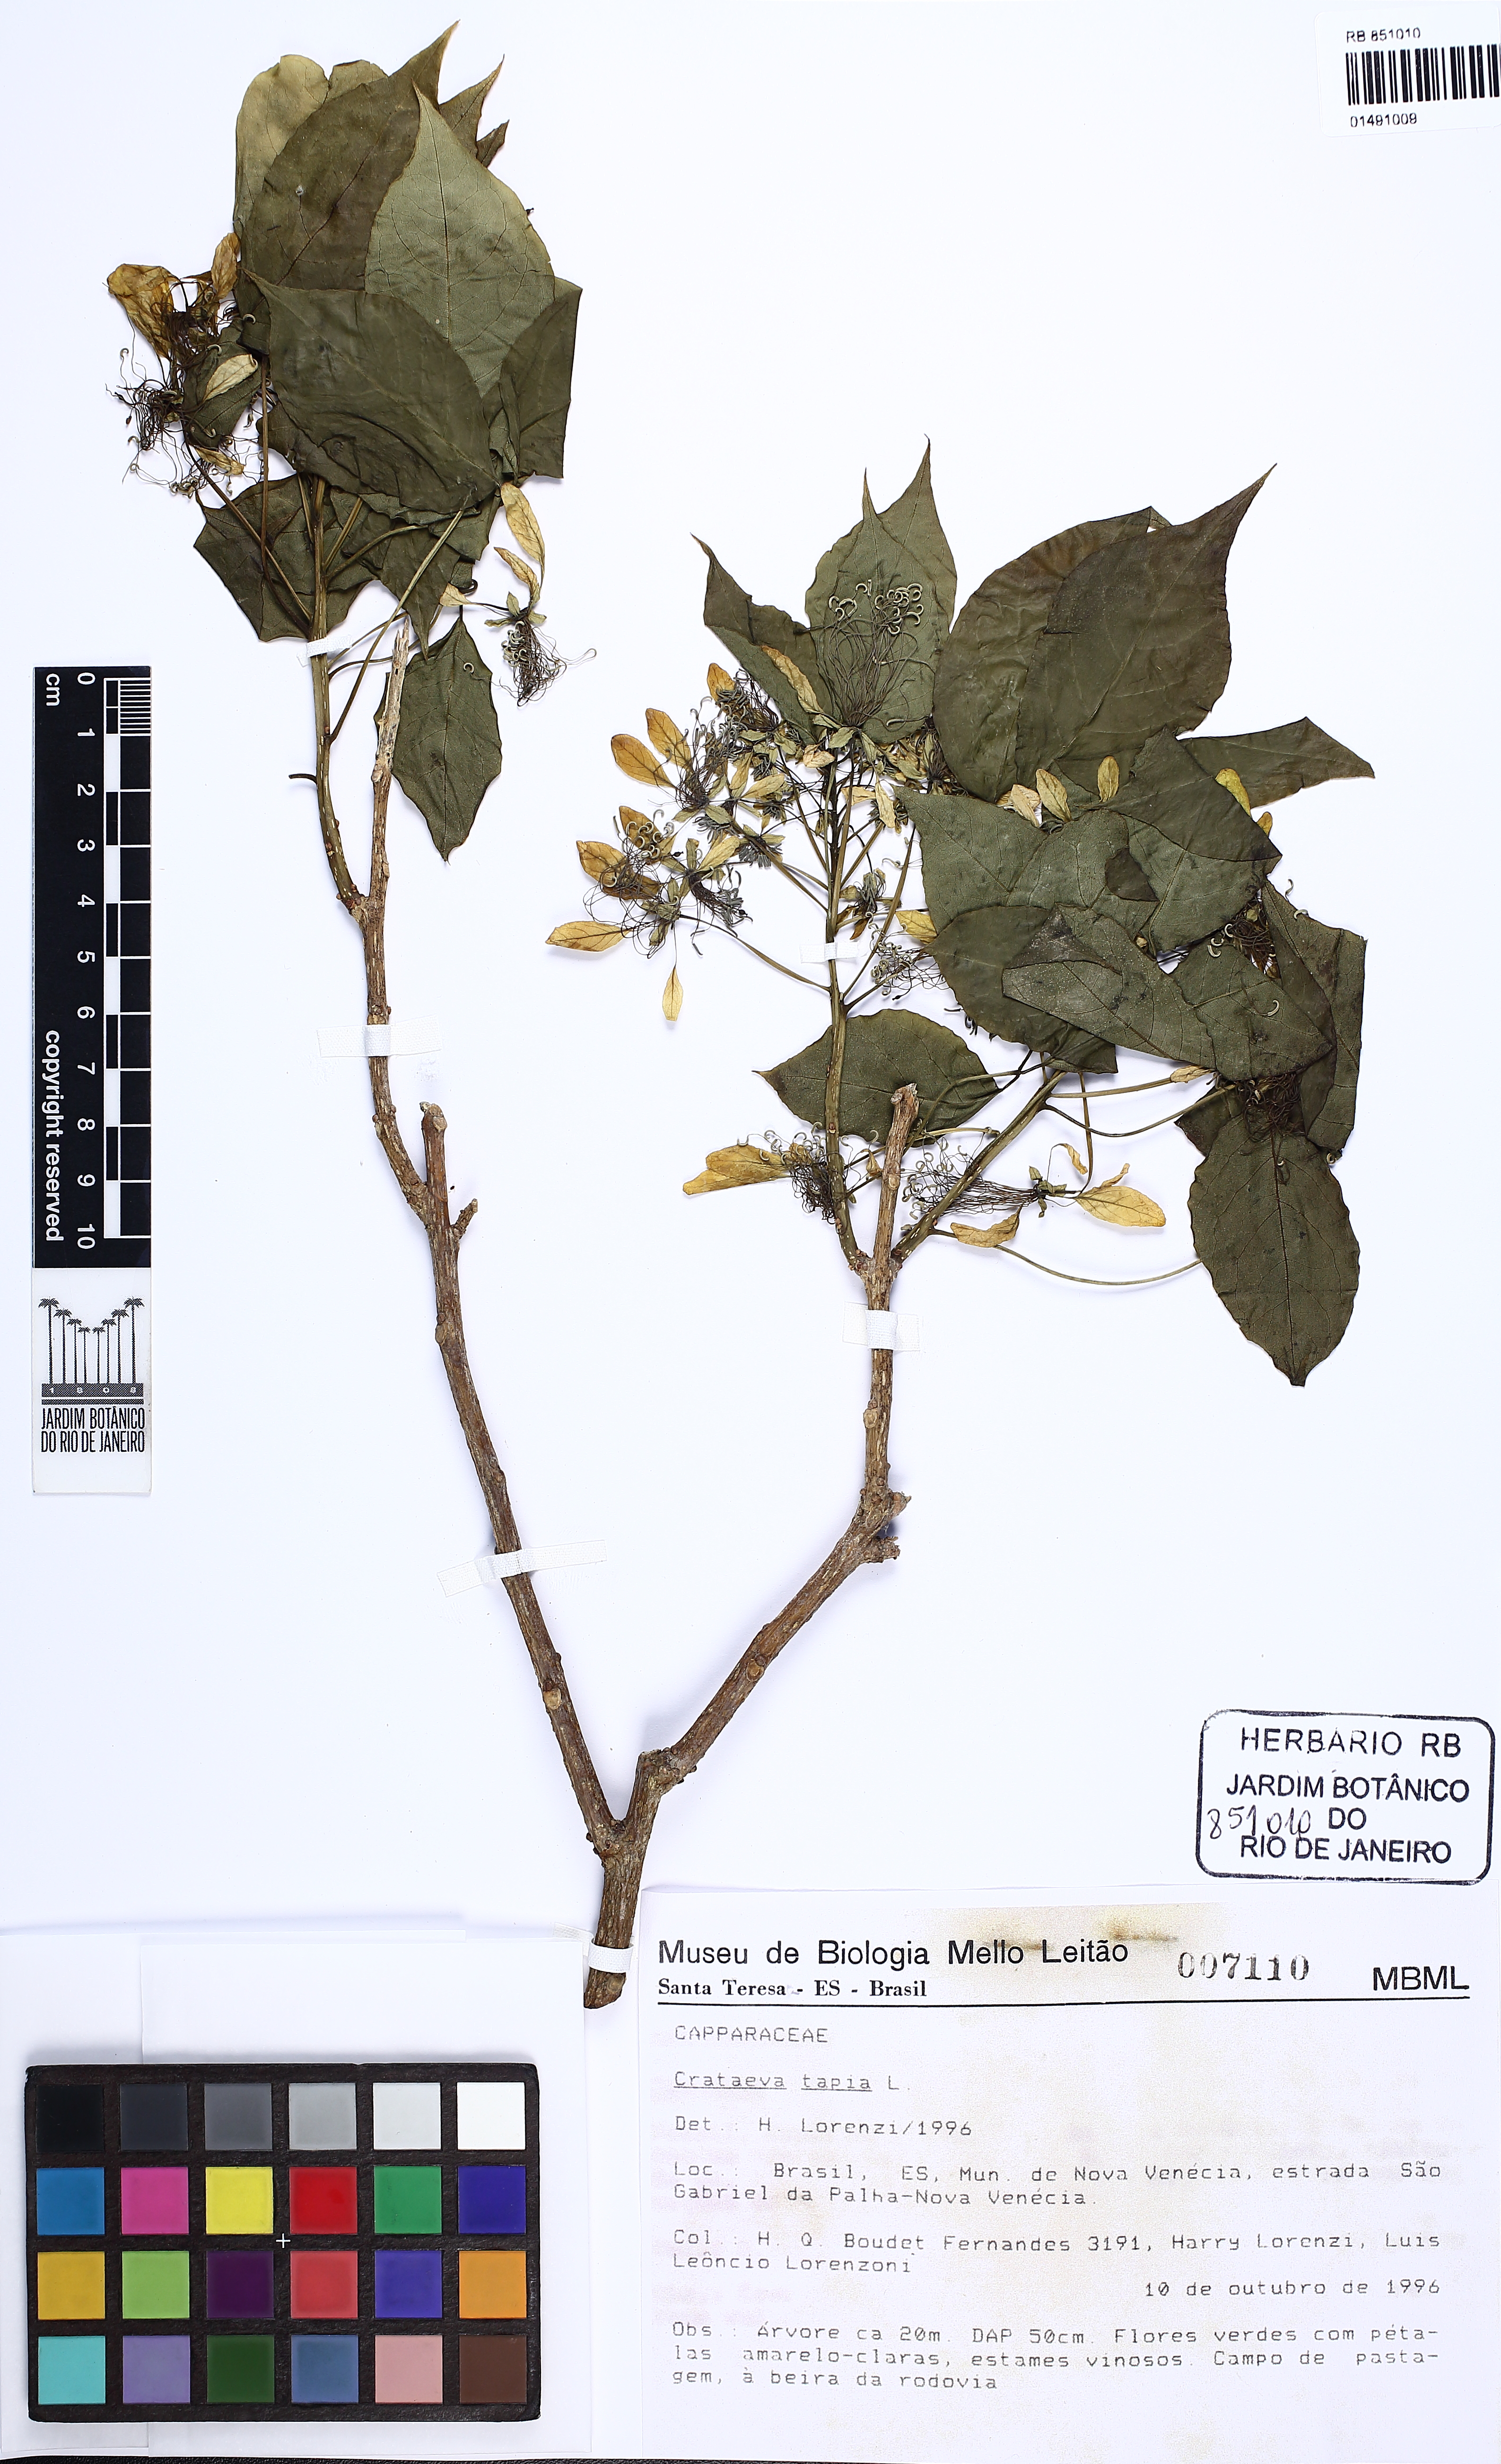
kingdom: Plantae
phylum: Tracheophyta
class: Magnoliopsida
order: Brassicales
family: Capparaceae
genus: Crateva
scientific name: Crateva tapia
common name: Garlic-pear
